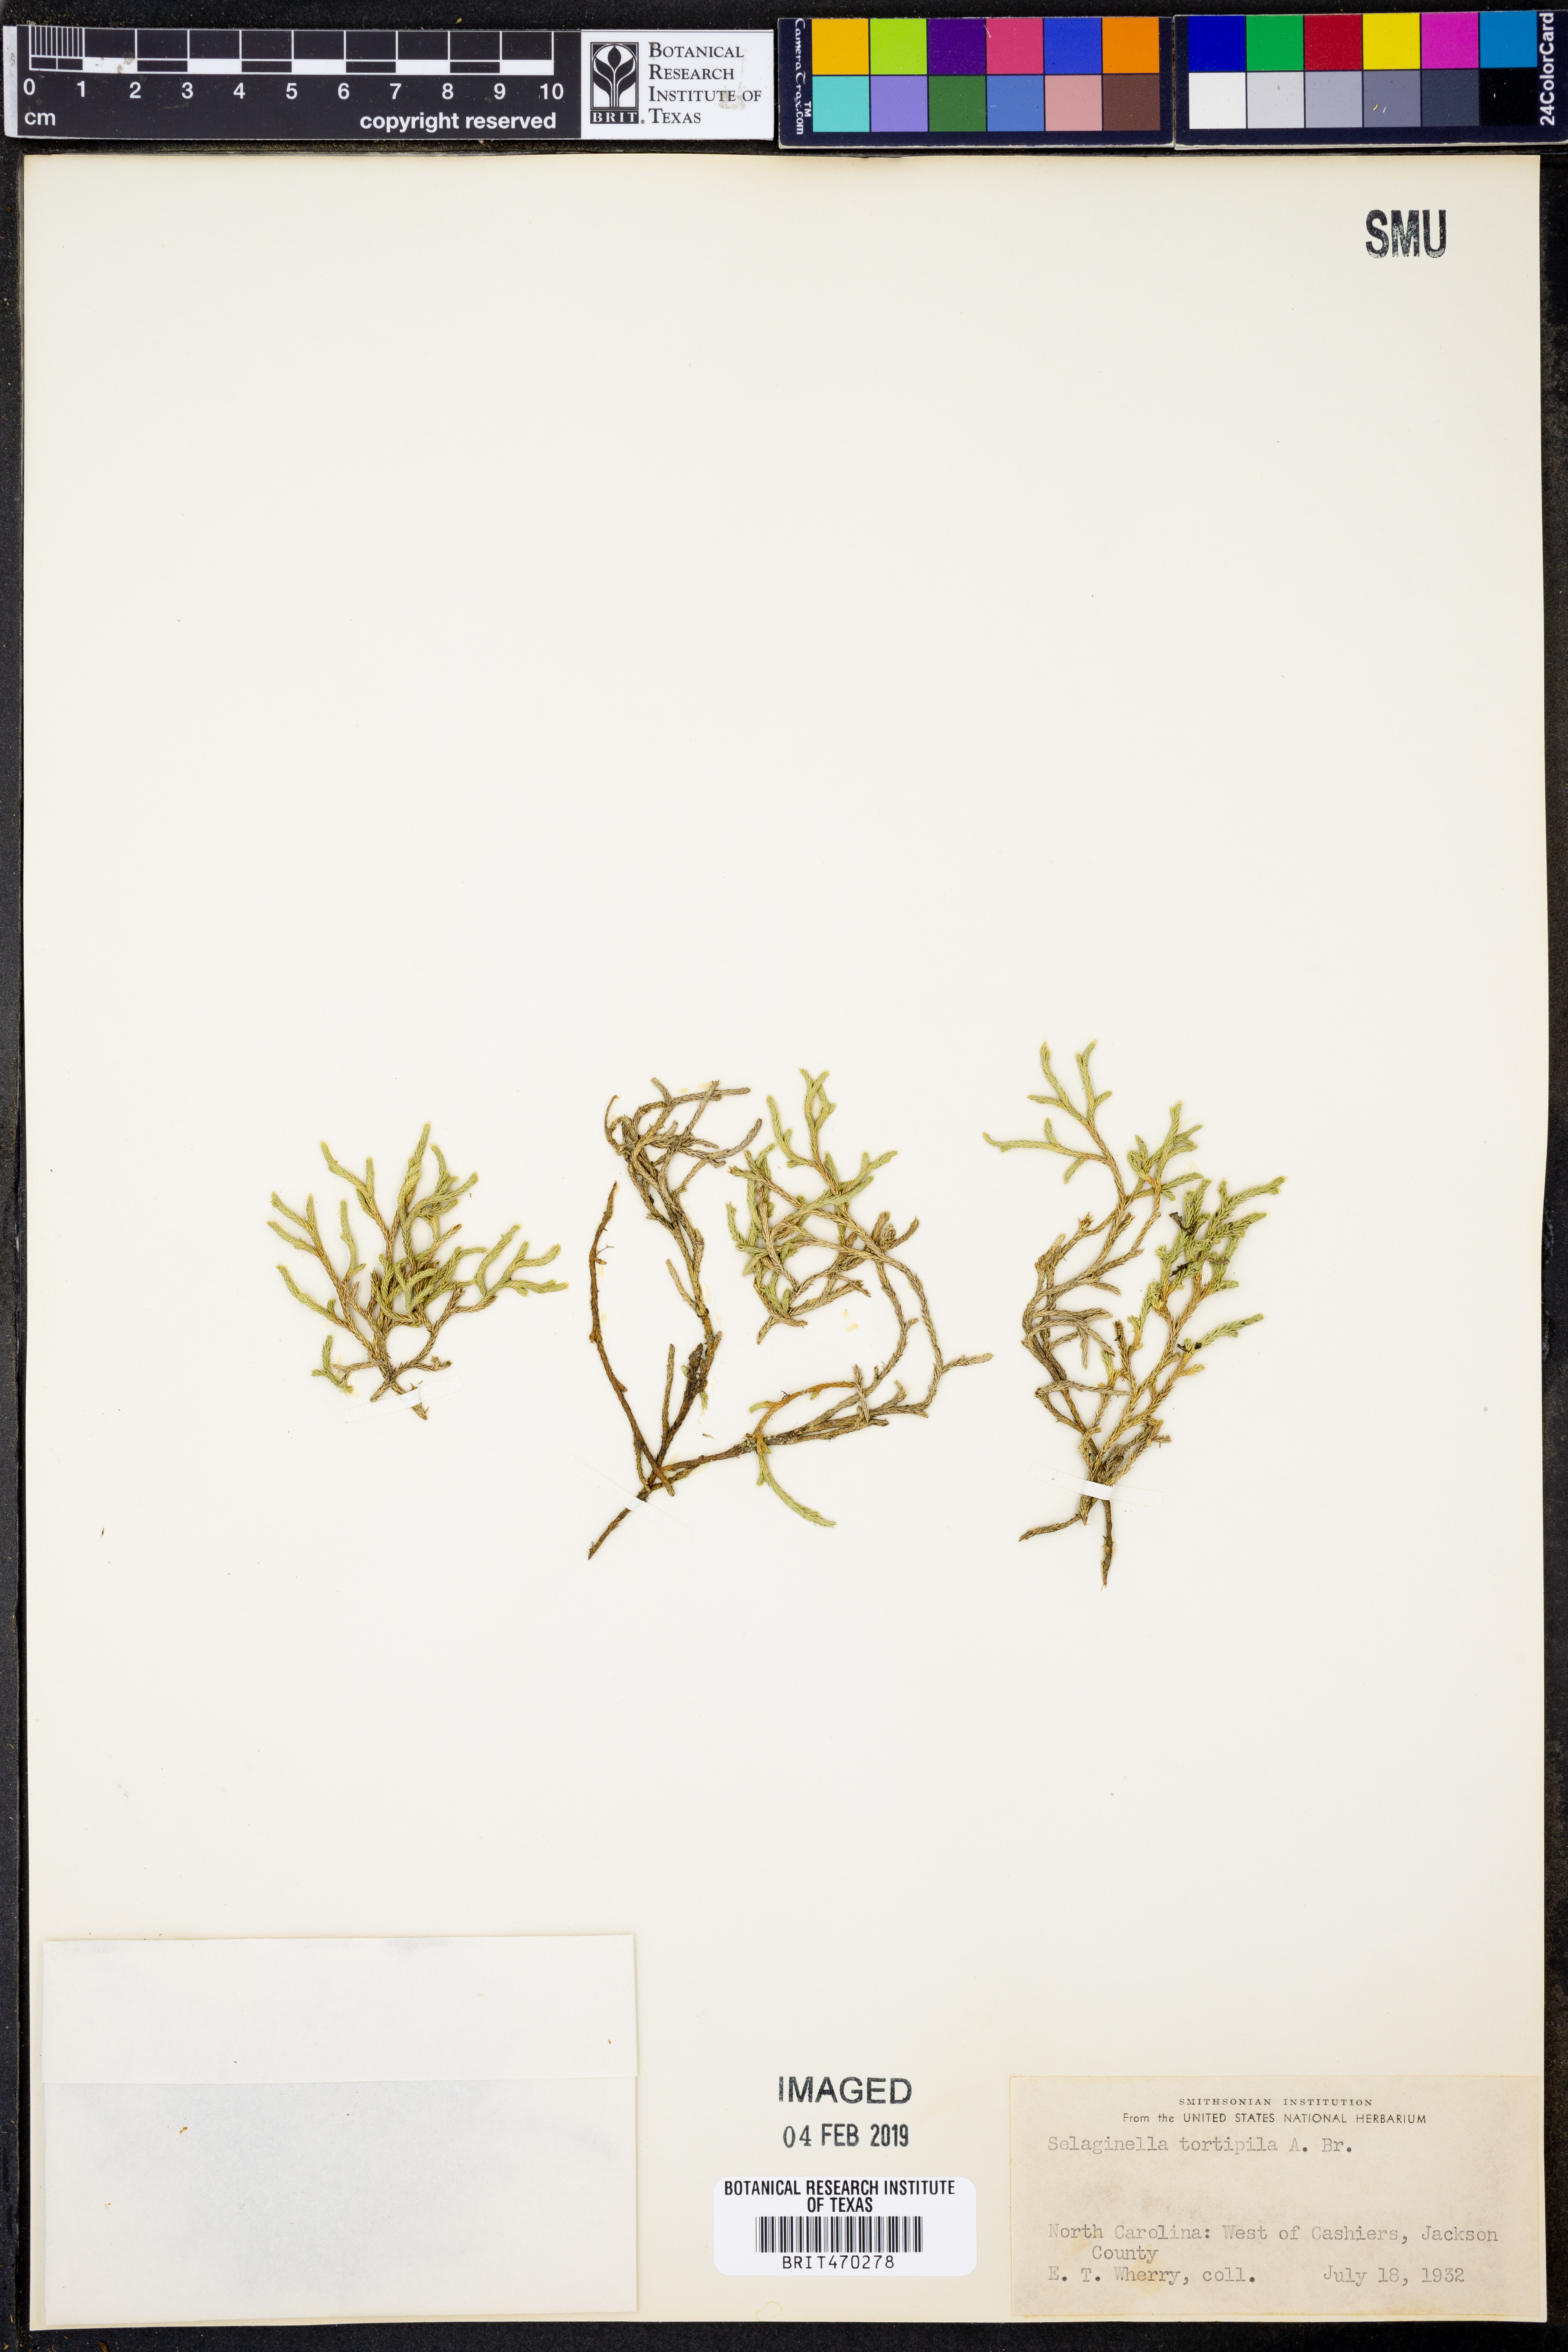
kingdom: Plantae
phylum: Tracheophyta
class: Lycopodiopsida
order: Selaginellales
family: Selaginellaceae
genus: Selaginella
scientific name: Selaginella tortipila
